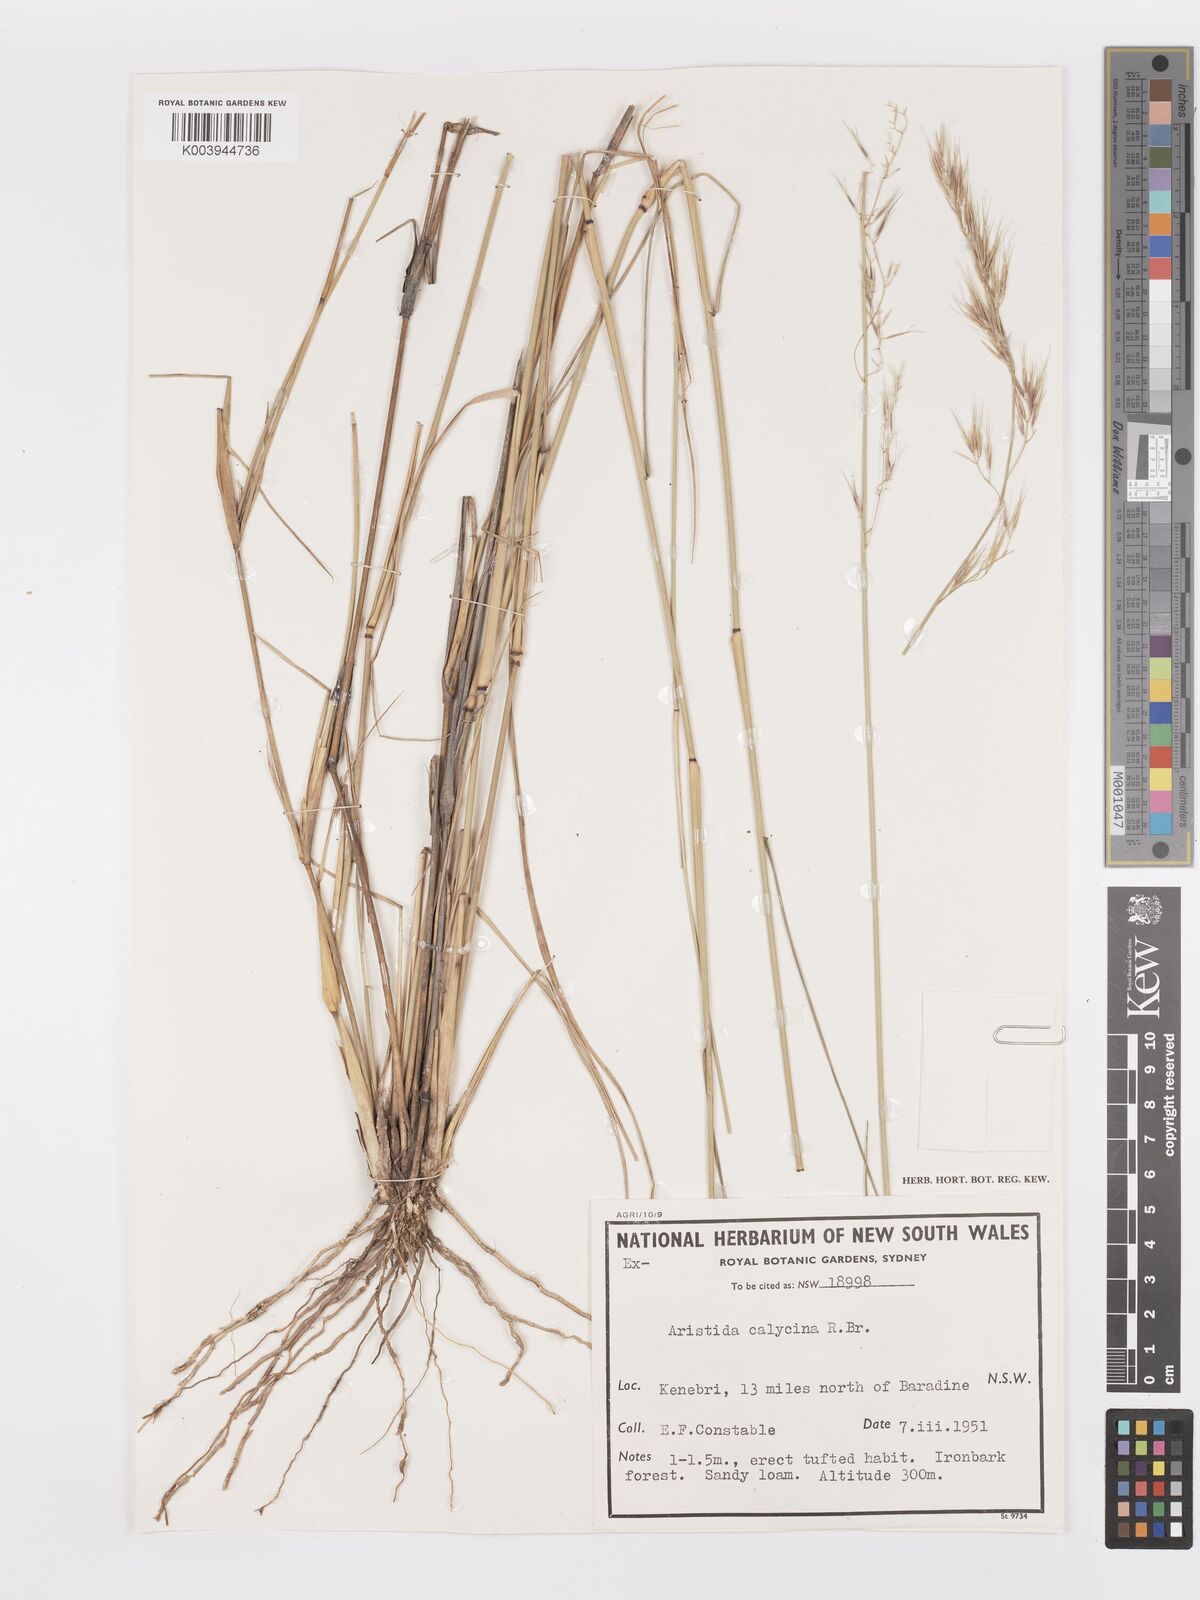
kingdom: Plantae
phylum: Tracheophyta
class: Liliopsida
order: Poales
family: Poaceae
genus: Aristida
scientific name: Aristida calycina
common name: Dark wire grass
